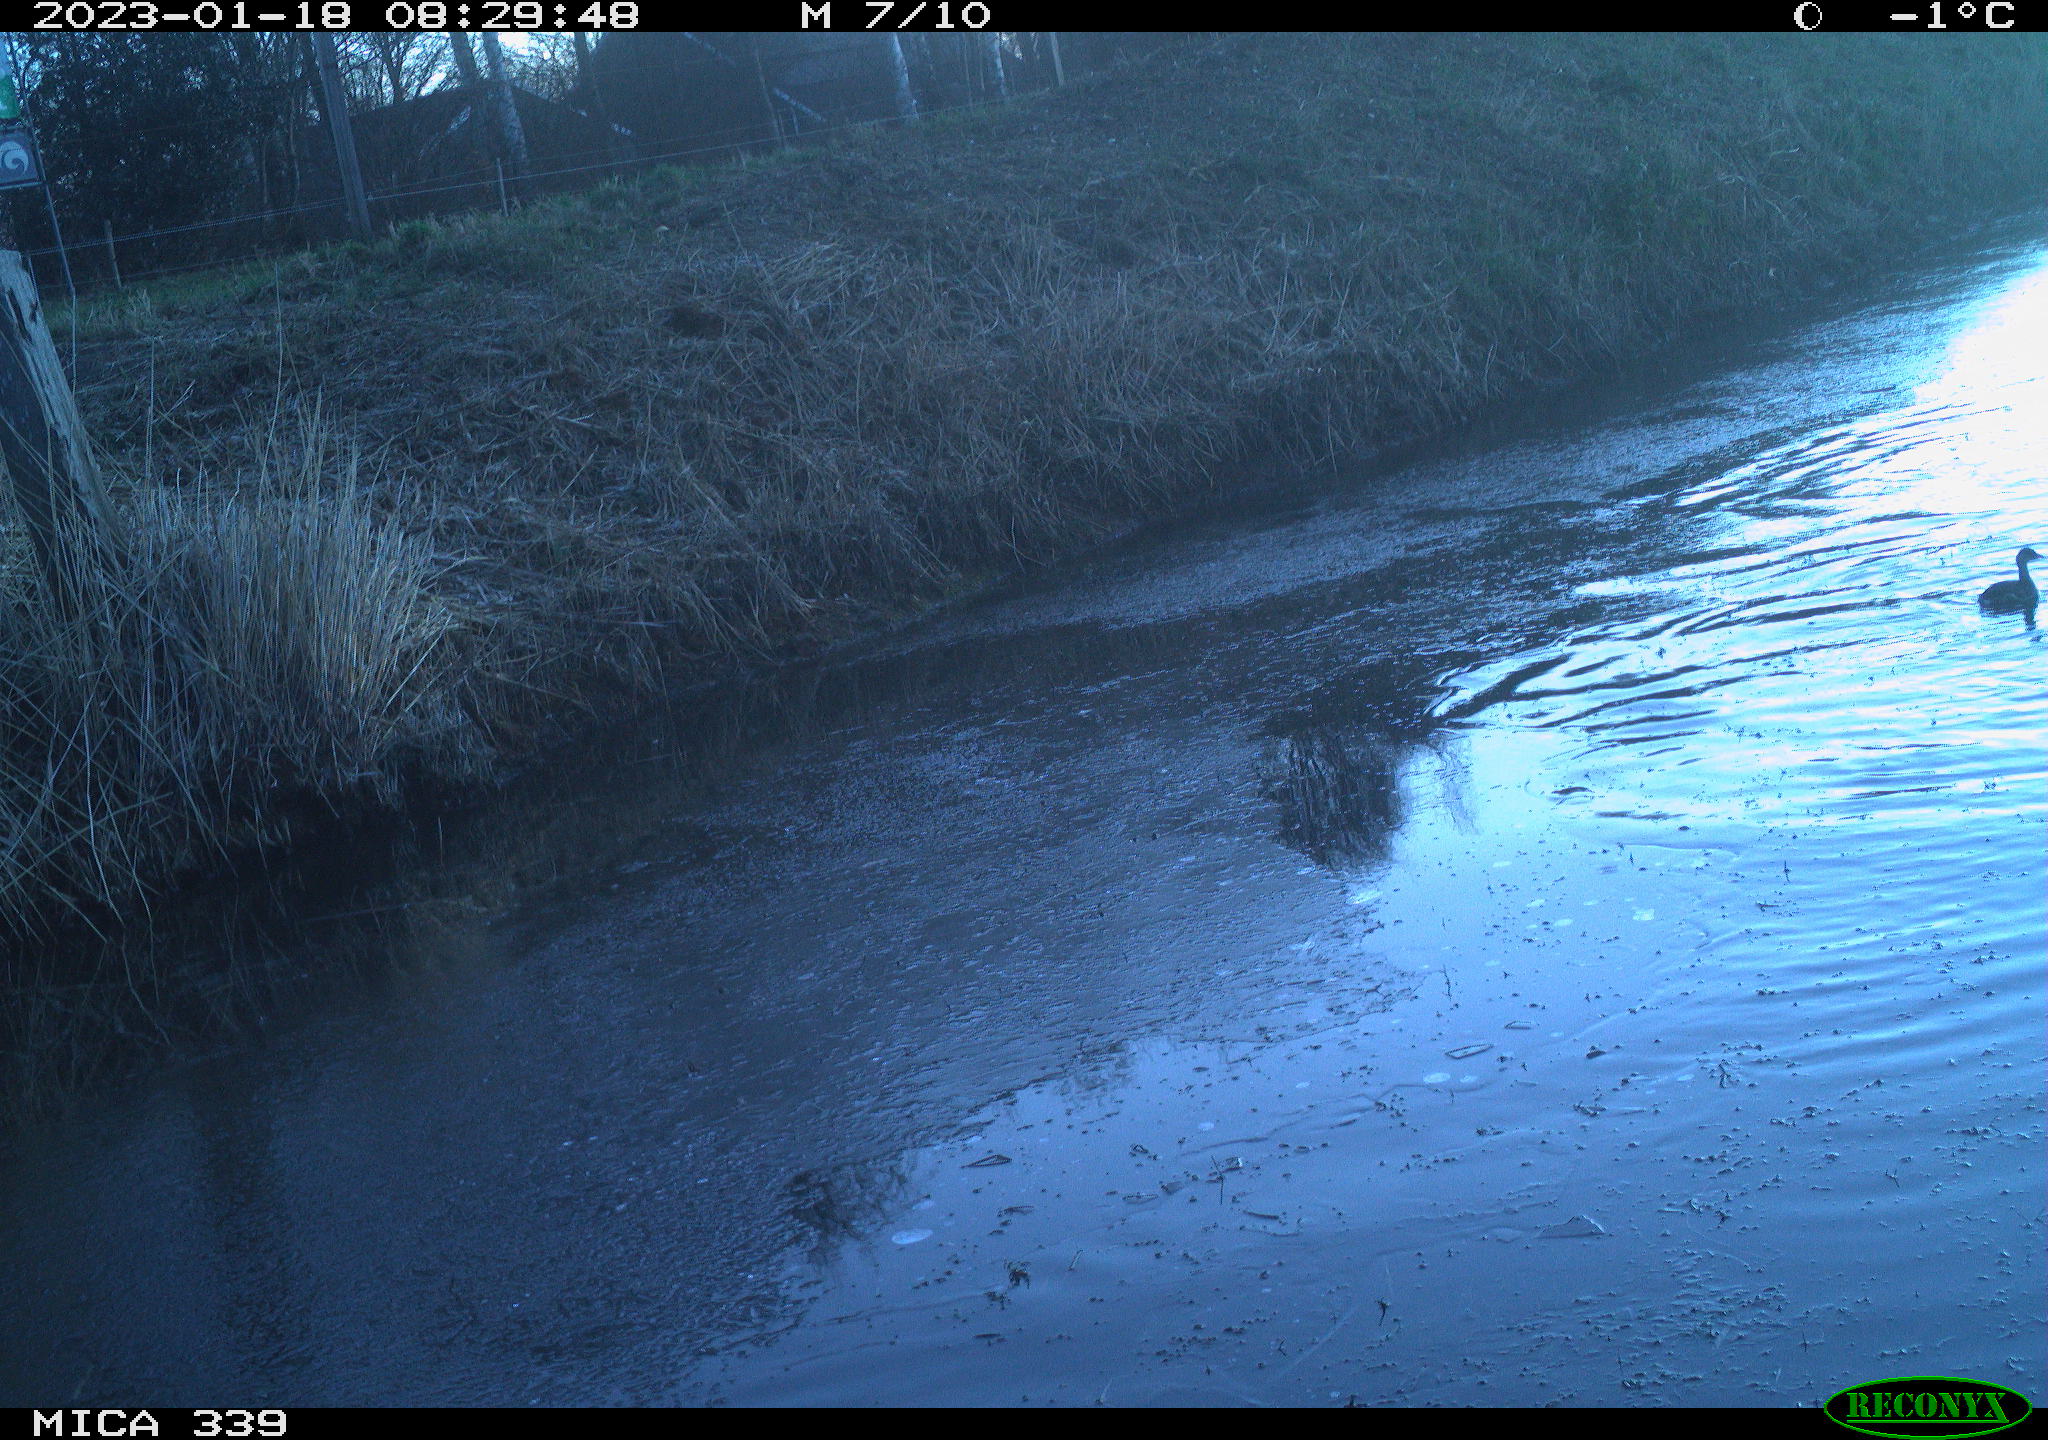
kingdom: Animalia
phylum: Chordata
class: Aves
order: Suliformes
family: Phalacrocoracidae
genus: Phalacrocorax
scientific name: Phalacrocorax carbo
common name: Great cormorant
